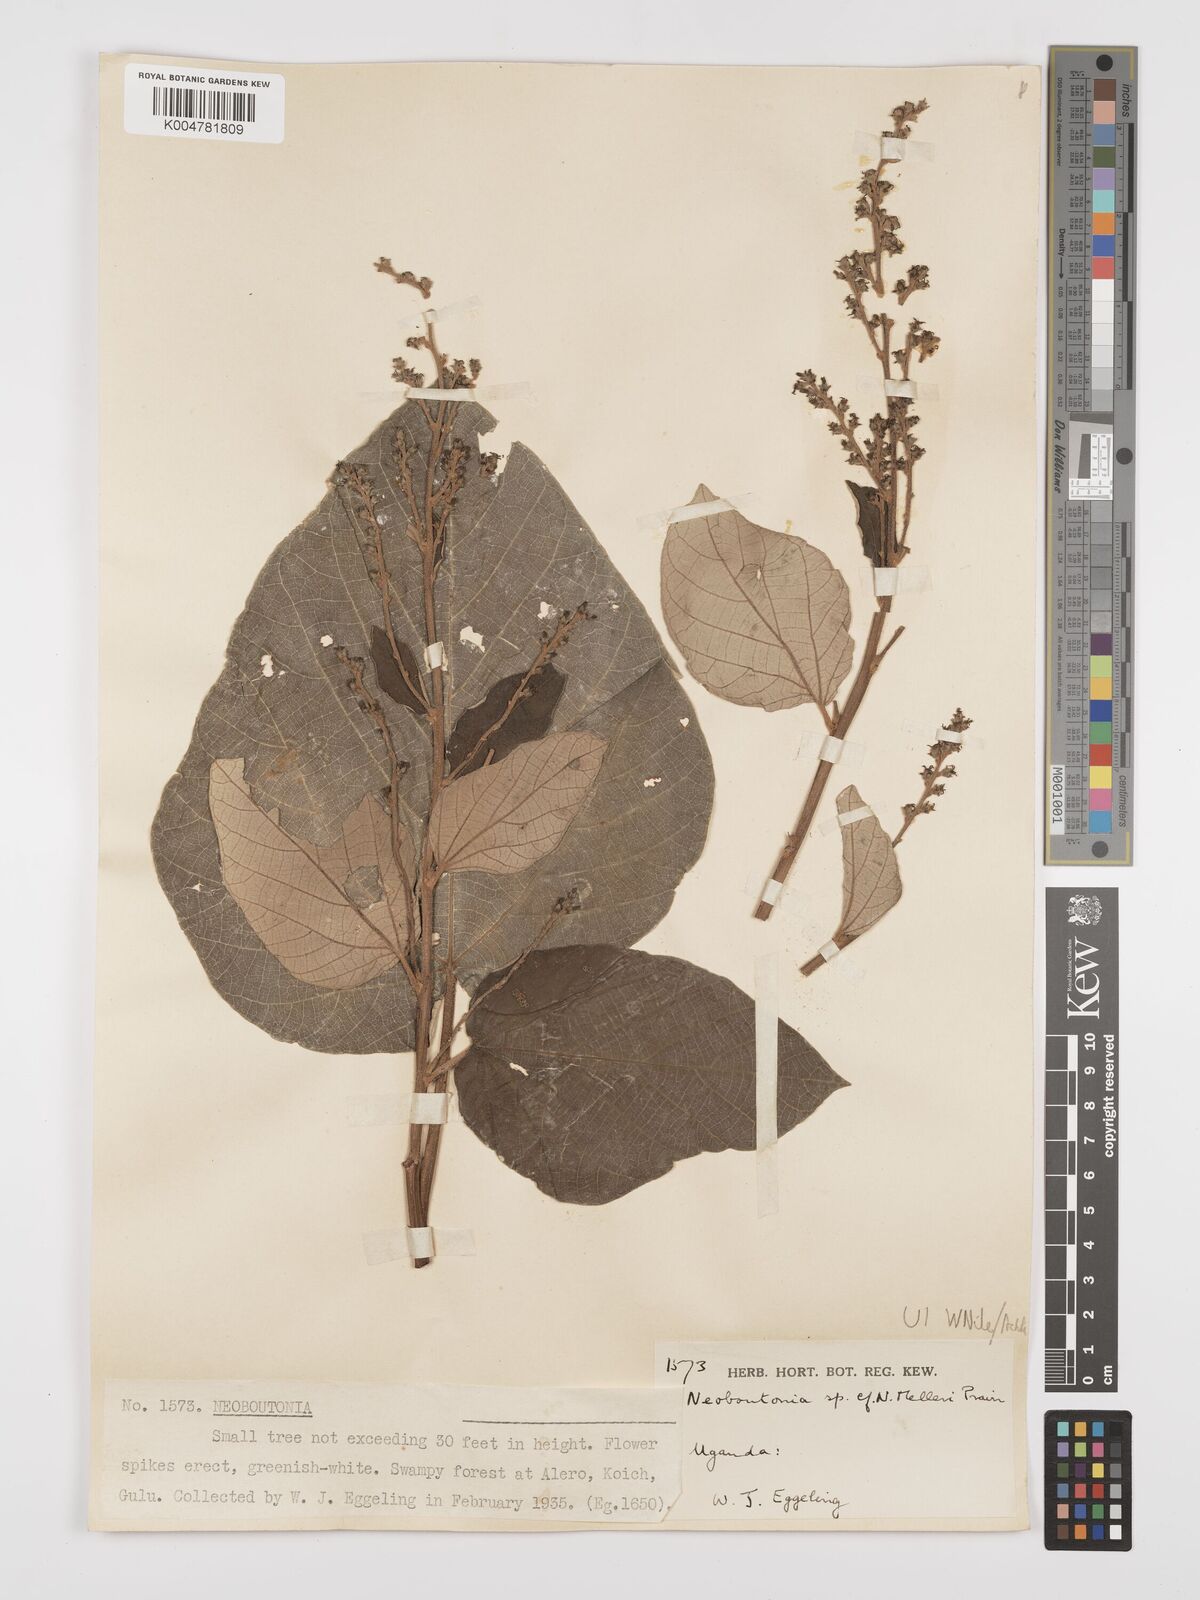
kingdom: Plantae
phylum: Tracheophyta
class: Magnoliopsida
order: Malpighiales
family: Euphorbiaceae
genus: Neoboutonia
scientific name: Neoboutonia melleri
